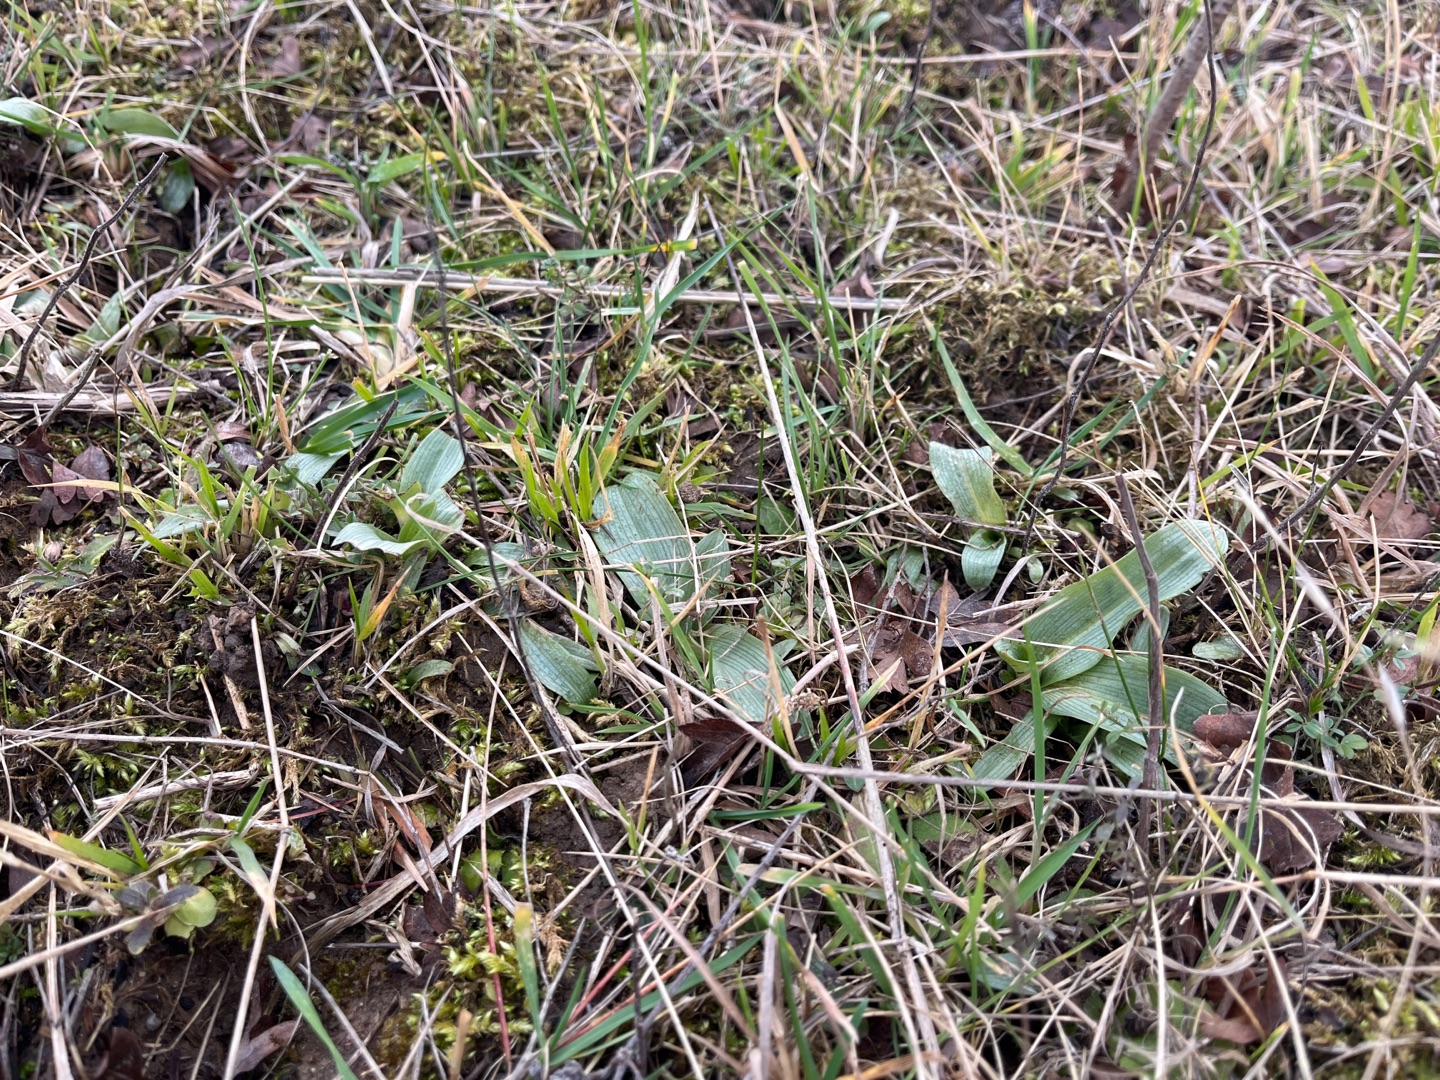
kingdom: Plantae
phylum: Tracheophyta
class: Liliopsida
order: Asparagales
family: Orchidaceae
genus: Ophrys
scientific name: Ophrys apifera
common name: Biblomst
